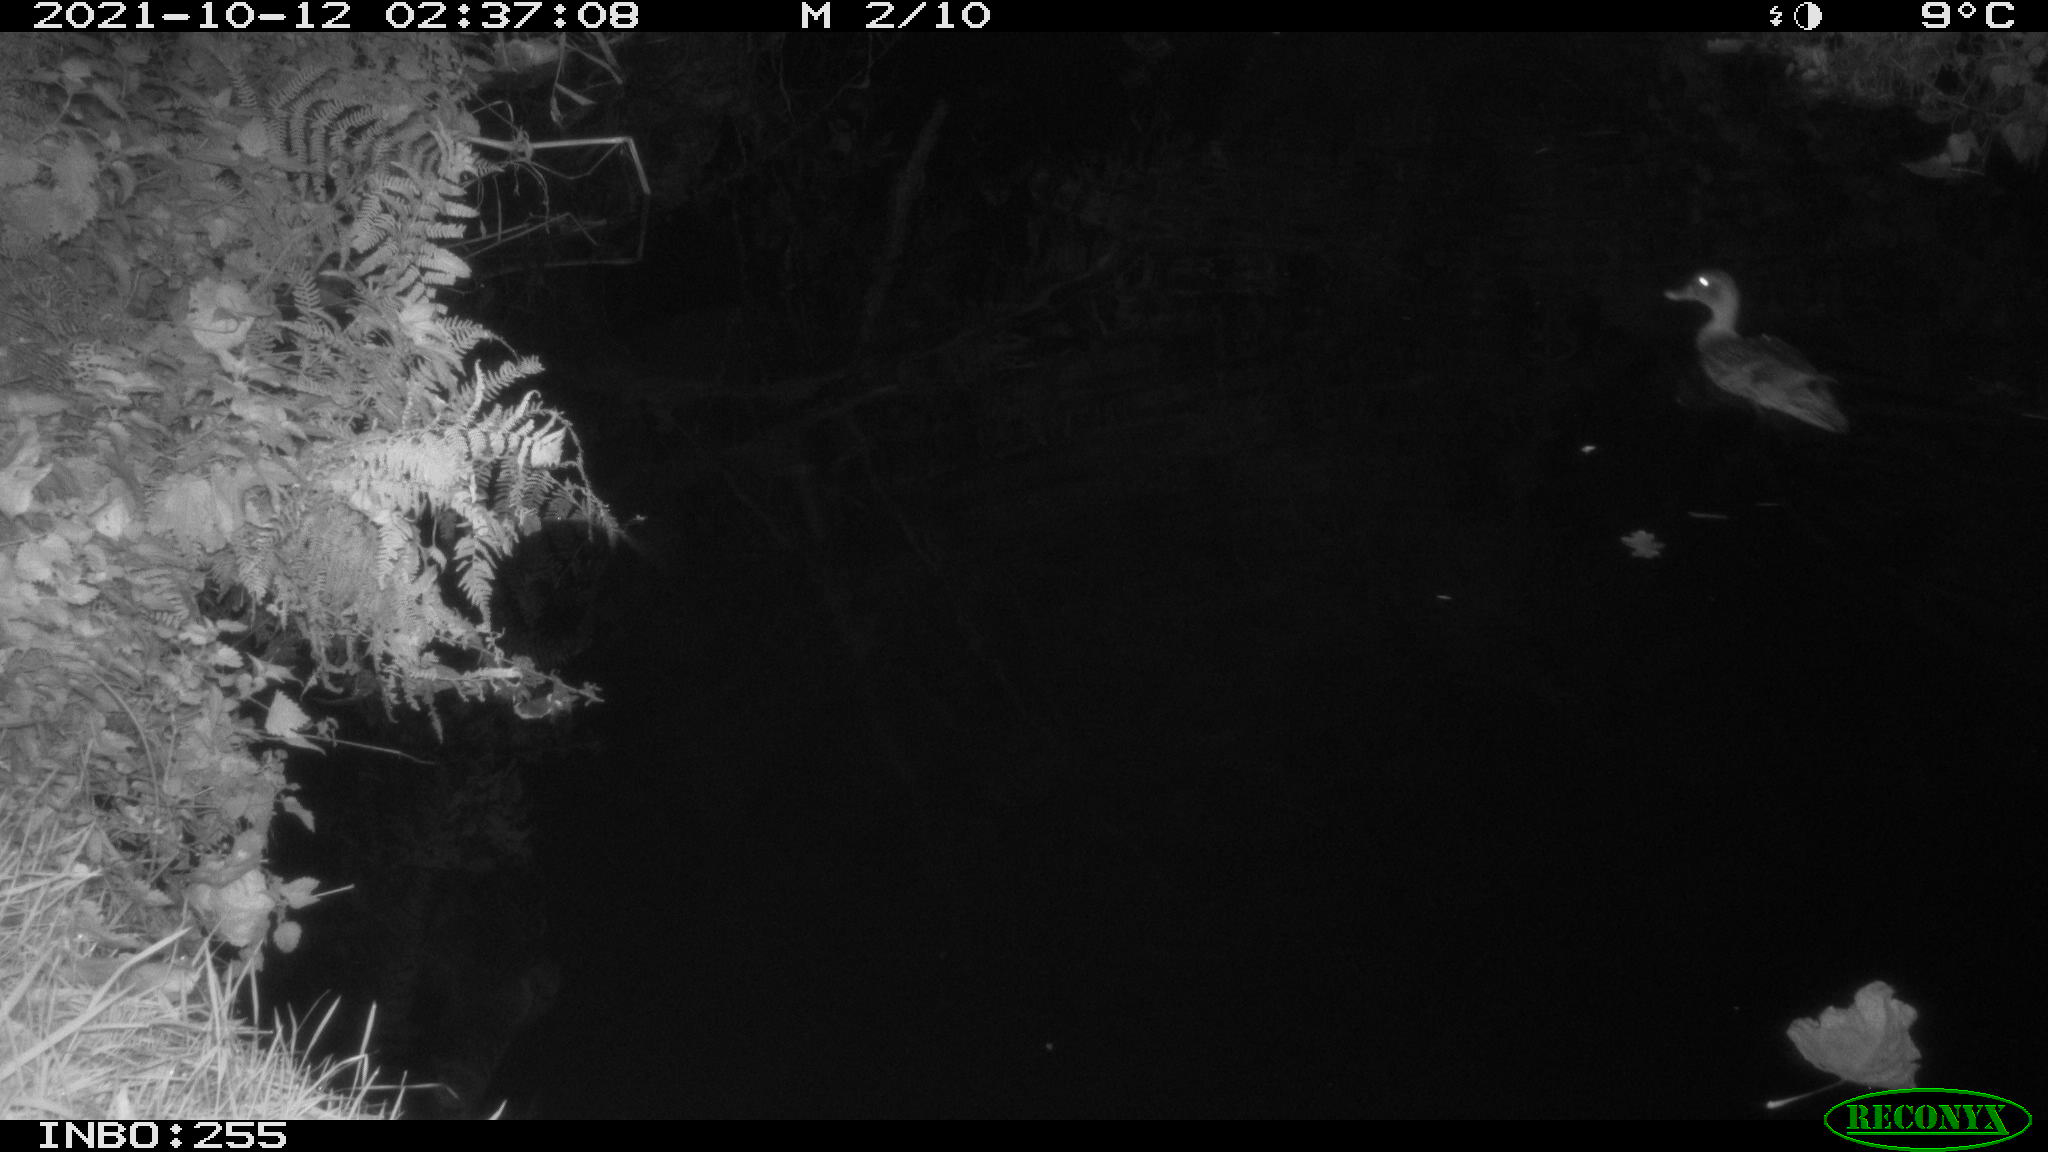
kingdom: Animalia
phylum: Chordata
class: Aves
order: Anseriformes
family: Anatidae
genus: Anas
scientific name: Anas platyrhynchos
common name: Mallard
